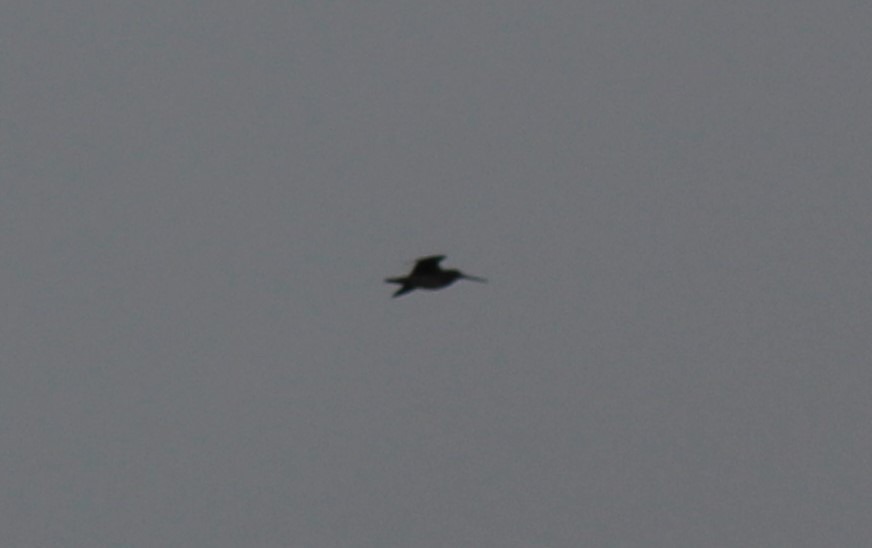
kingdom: Animalia
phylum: Chordata
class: Aves
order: Charadriiformes
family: Scolopacidae
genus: Gallinago
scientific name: Gallinago gallinago
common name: Dobbeltbekkasin
